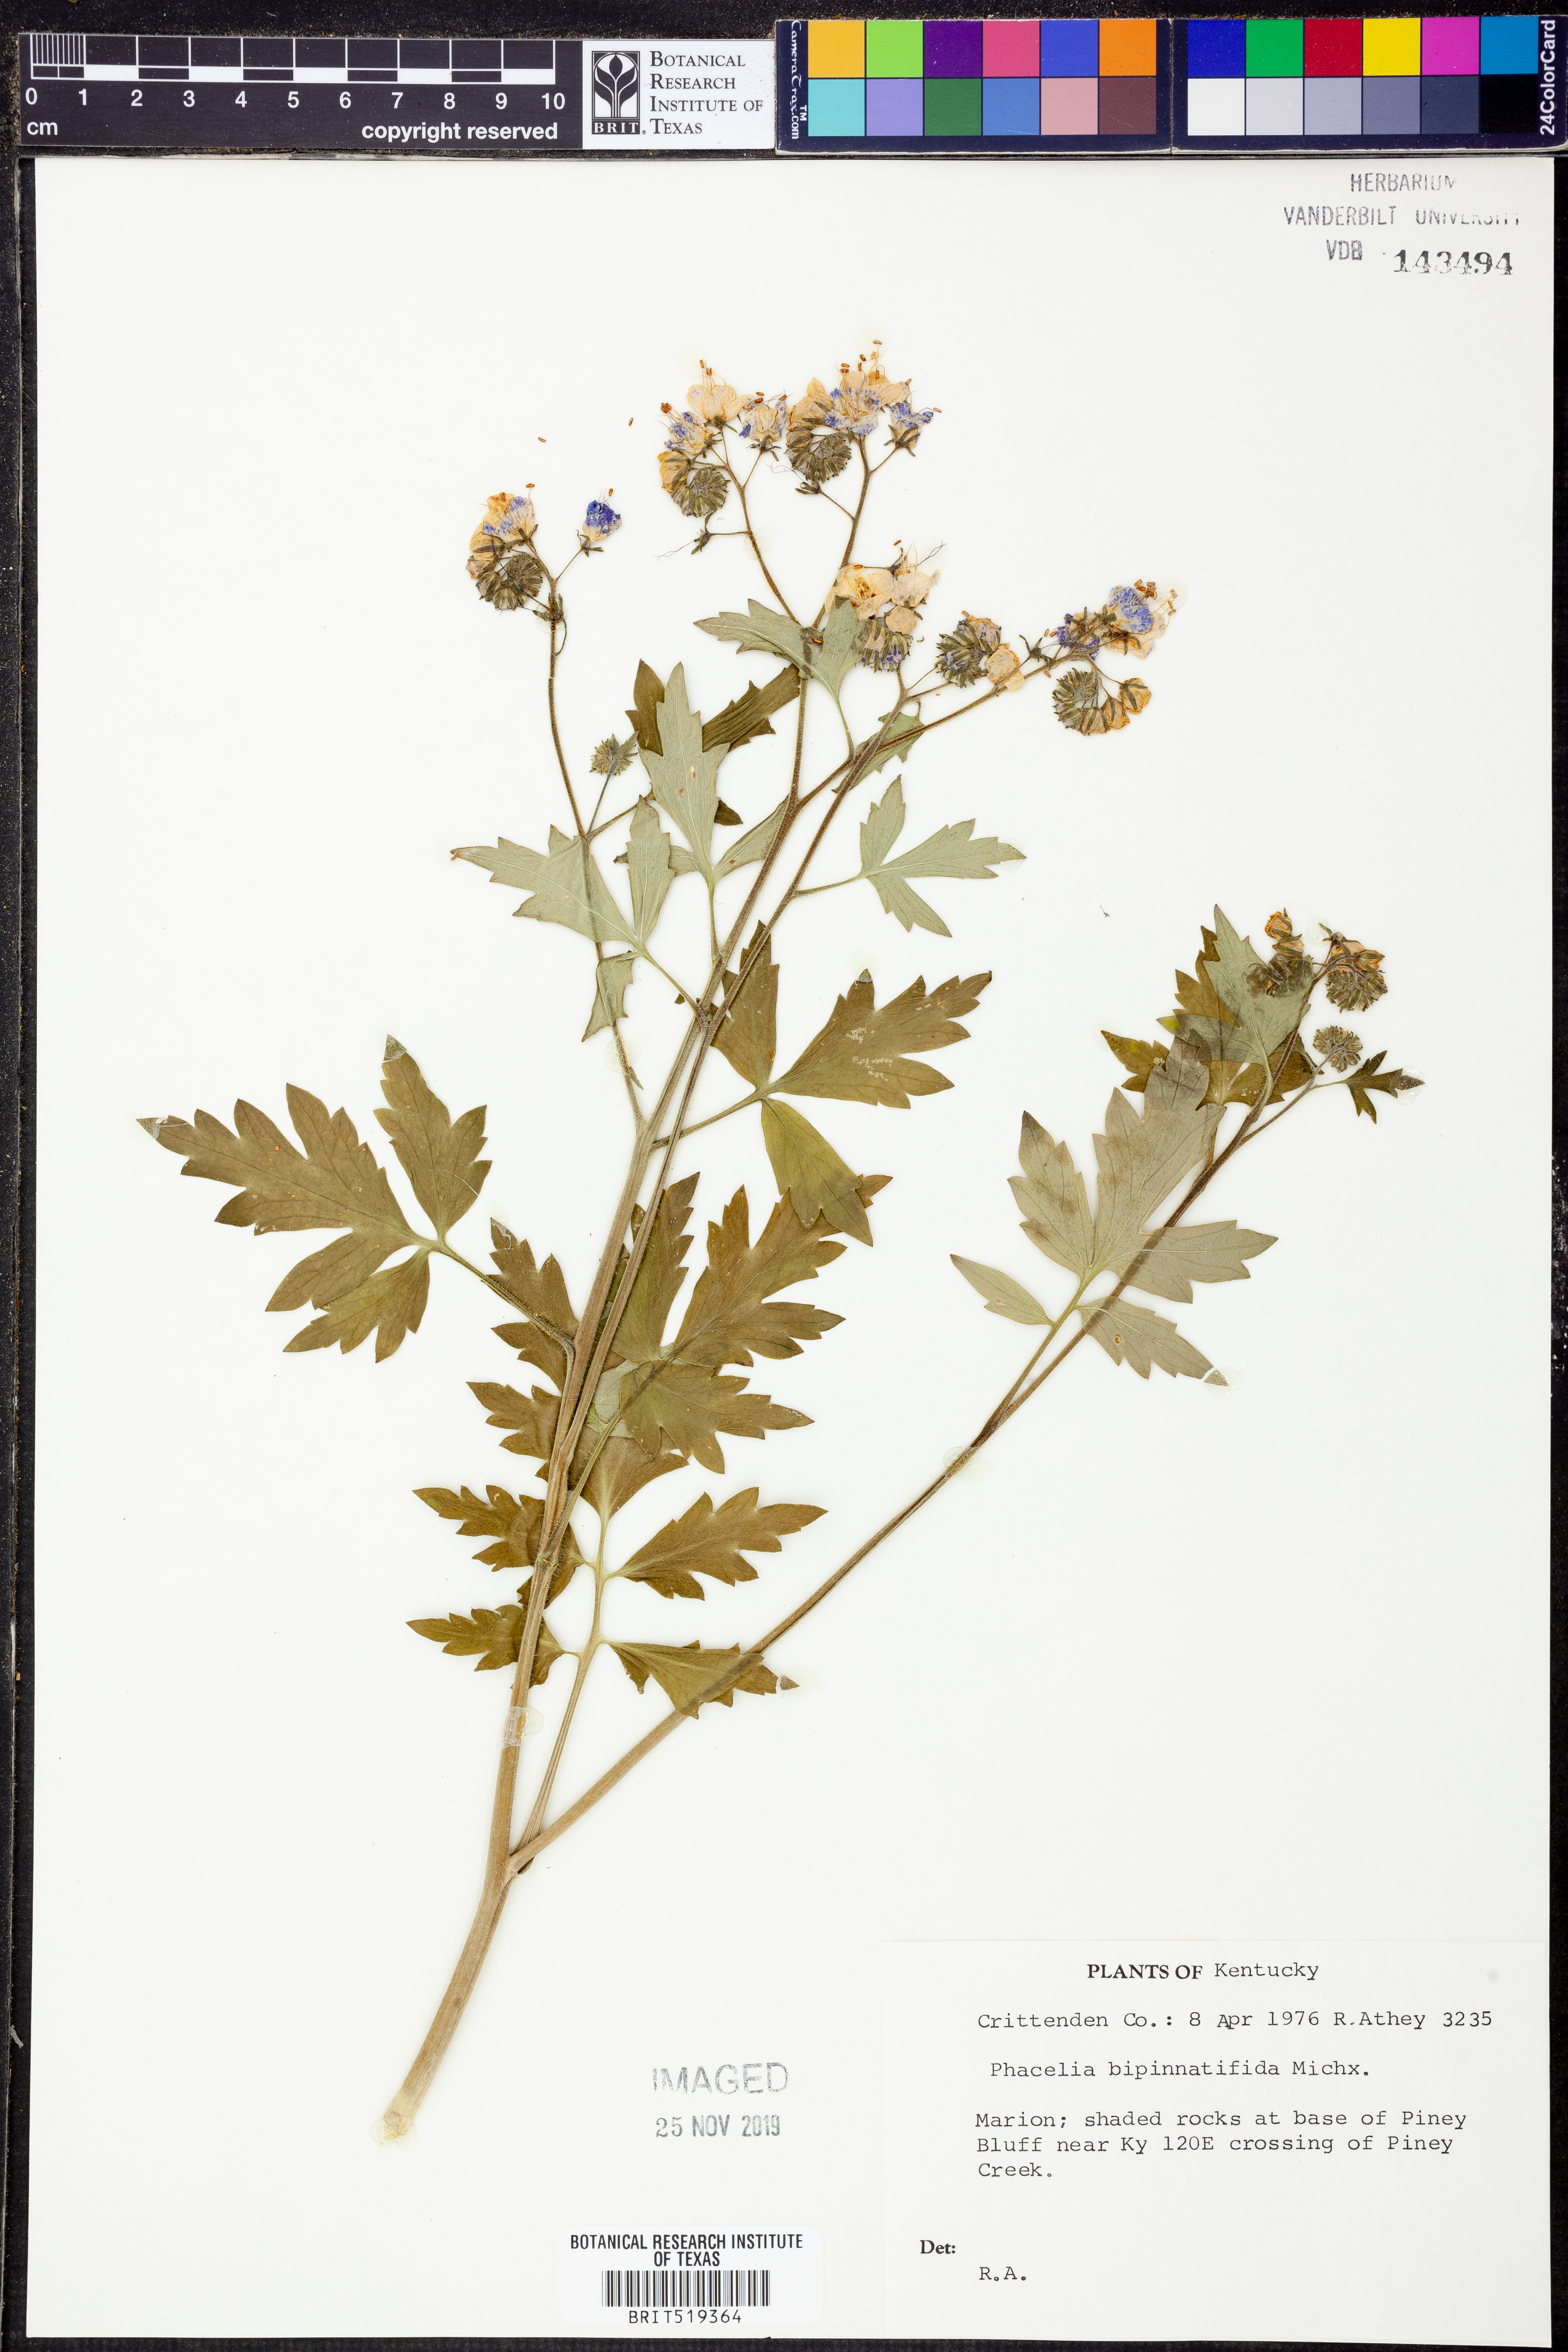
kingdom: Plantae
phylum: Tracheophyta
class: Magnoliopsida
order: Boraginales
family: Hydrophyllaceae
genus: Phacelia
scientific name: Phacelia bipinnatifida
